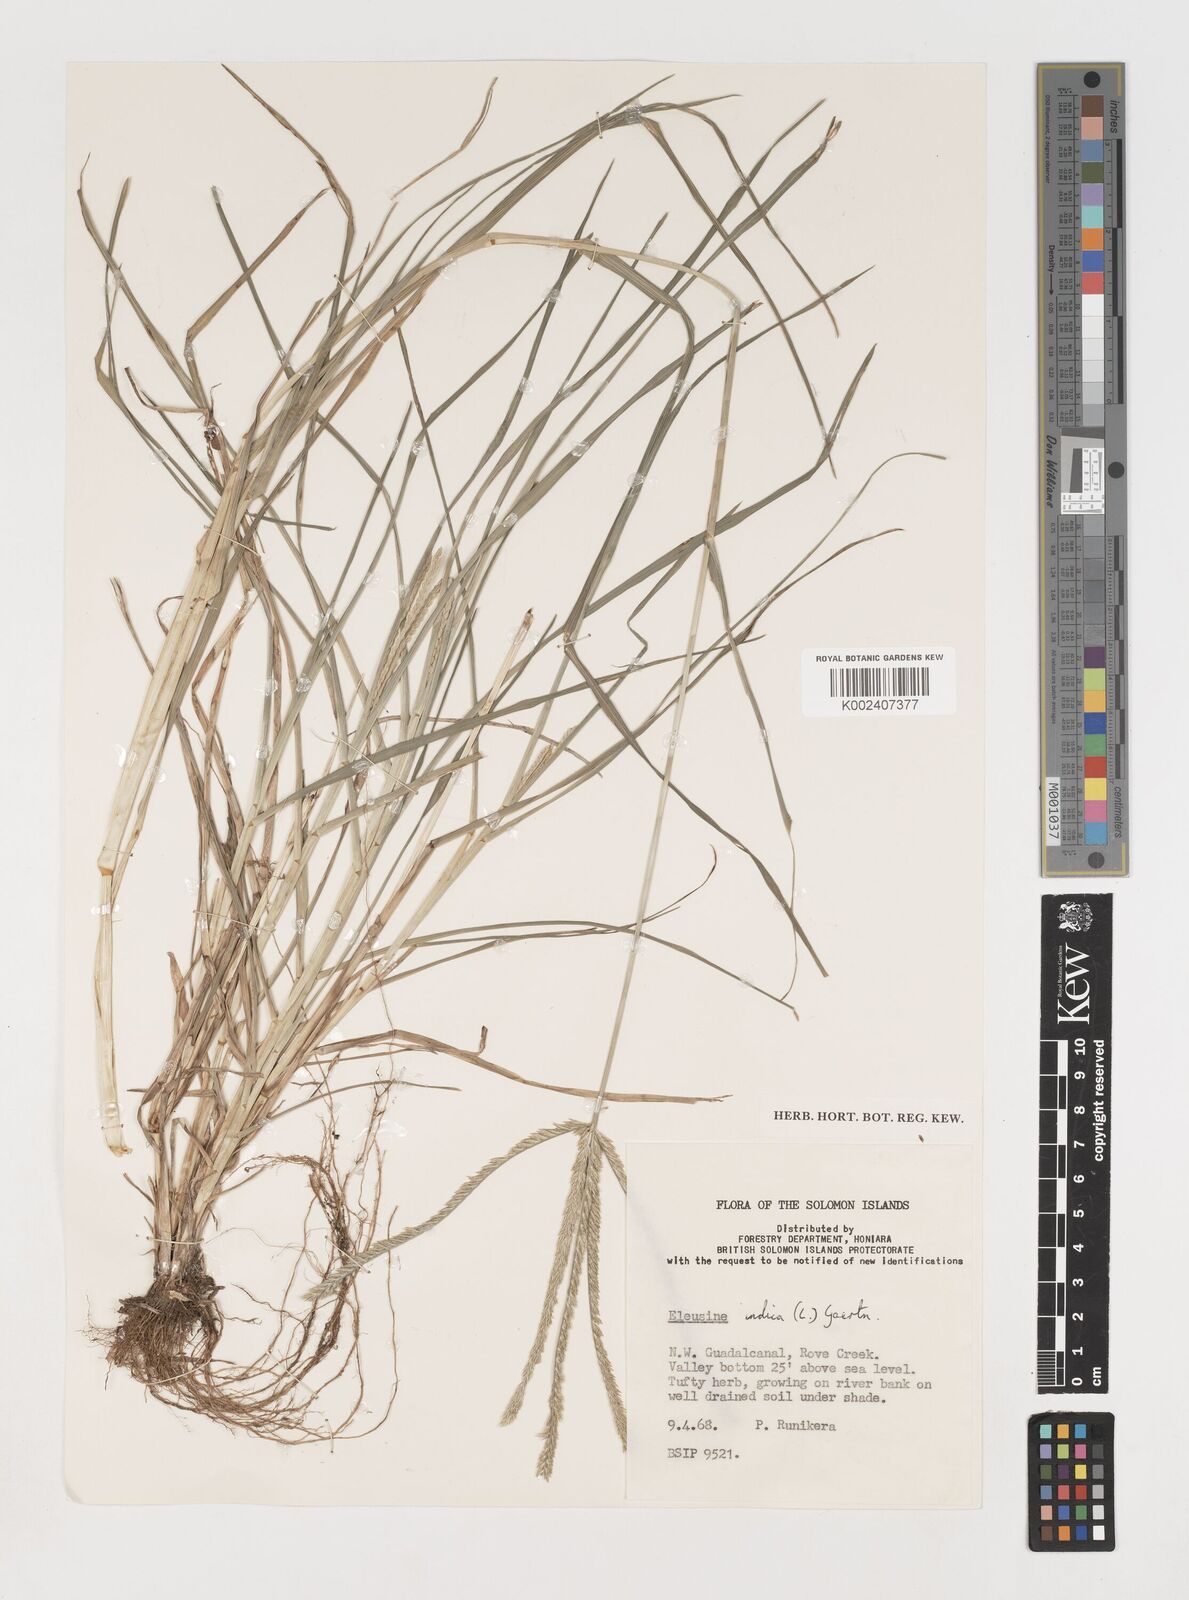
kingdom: Plantae
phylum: Tracheophyta
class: Liliopsida
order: Poales
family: Poaceae
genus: Eleusine
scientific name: Eleusine indica
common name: Yard-grass
